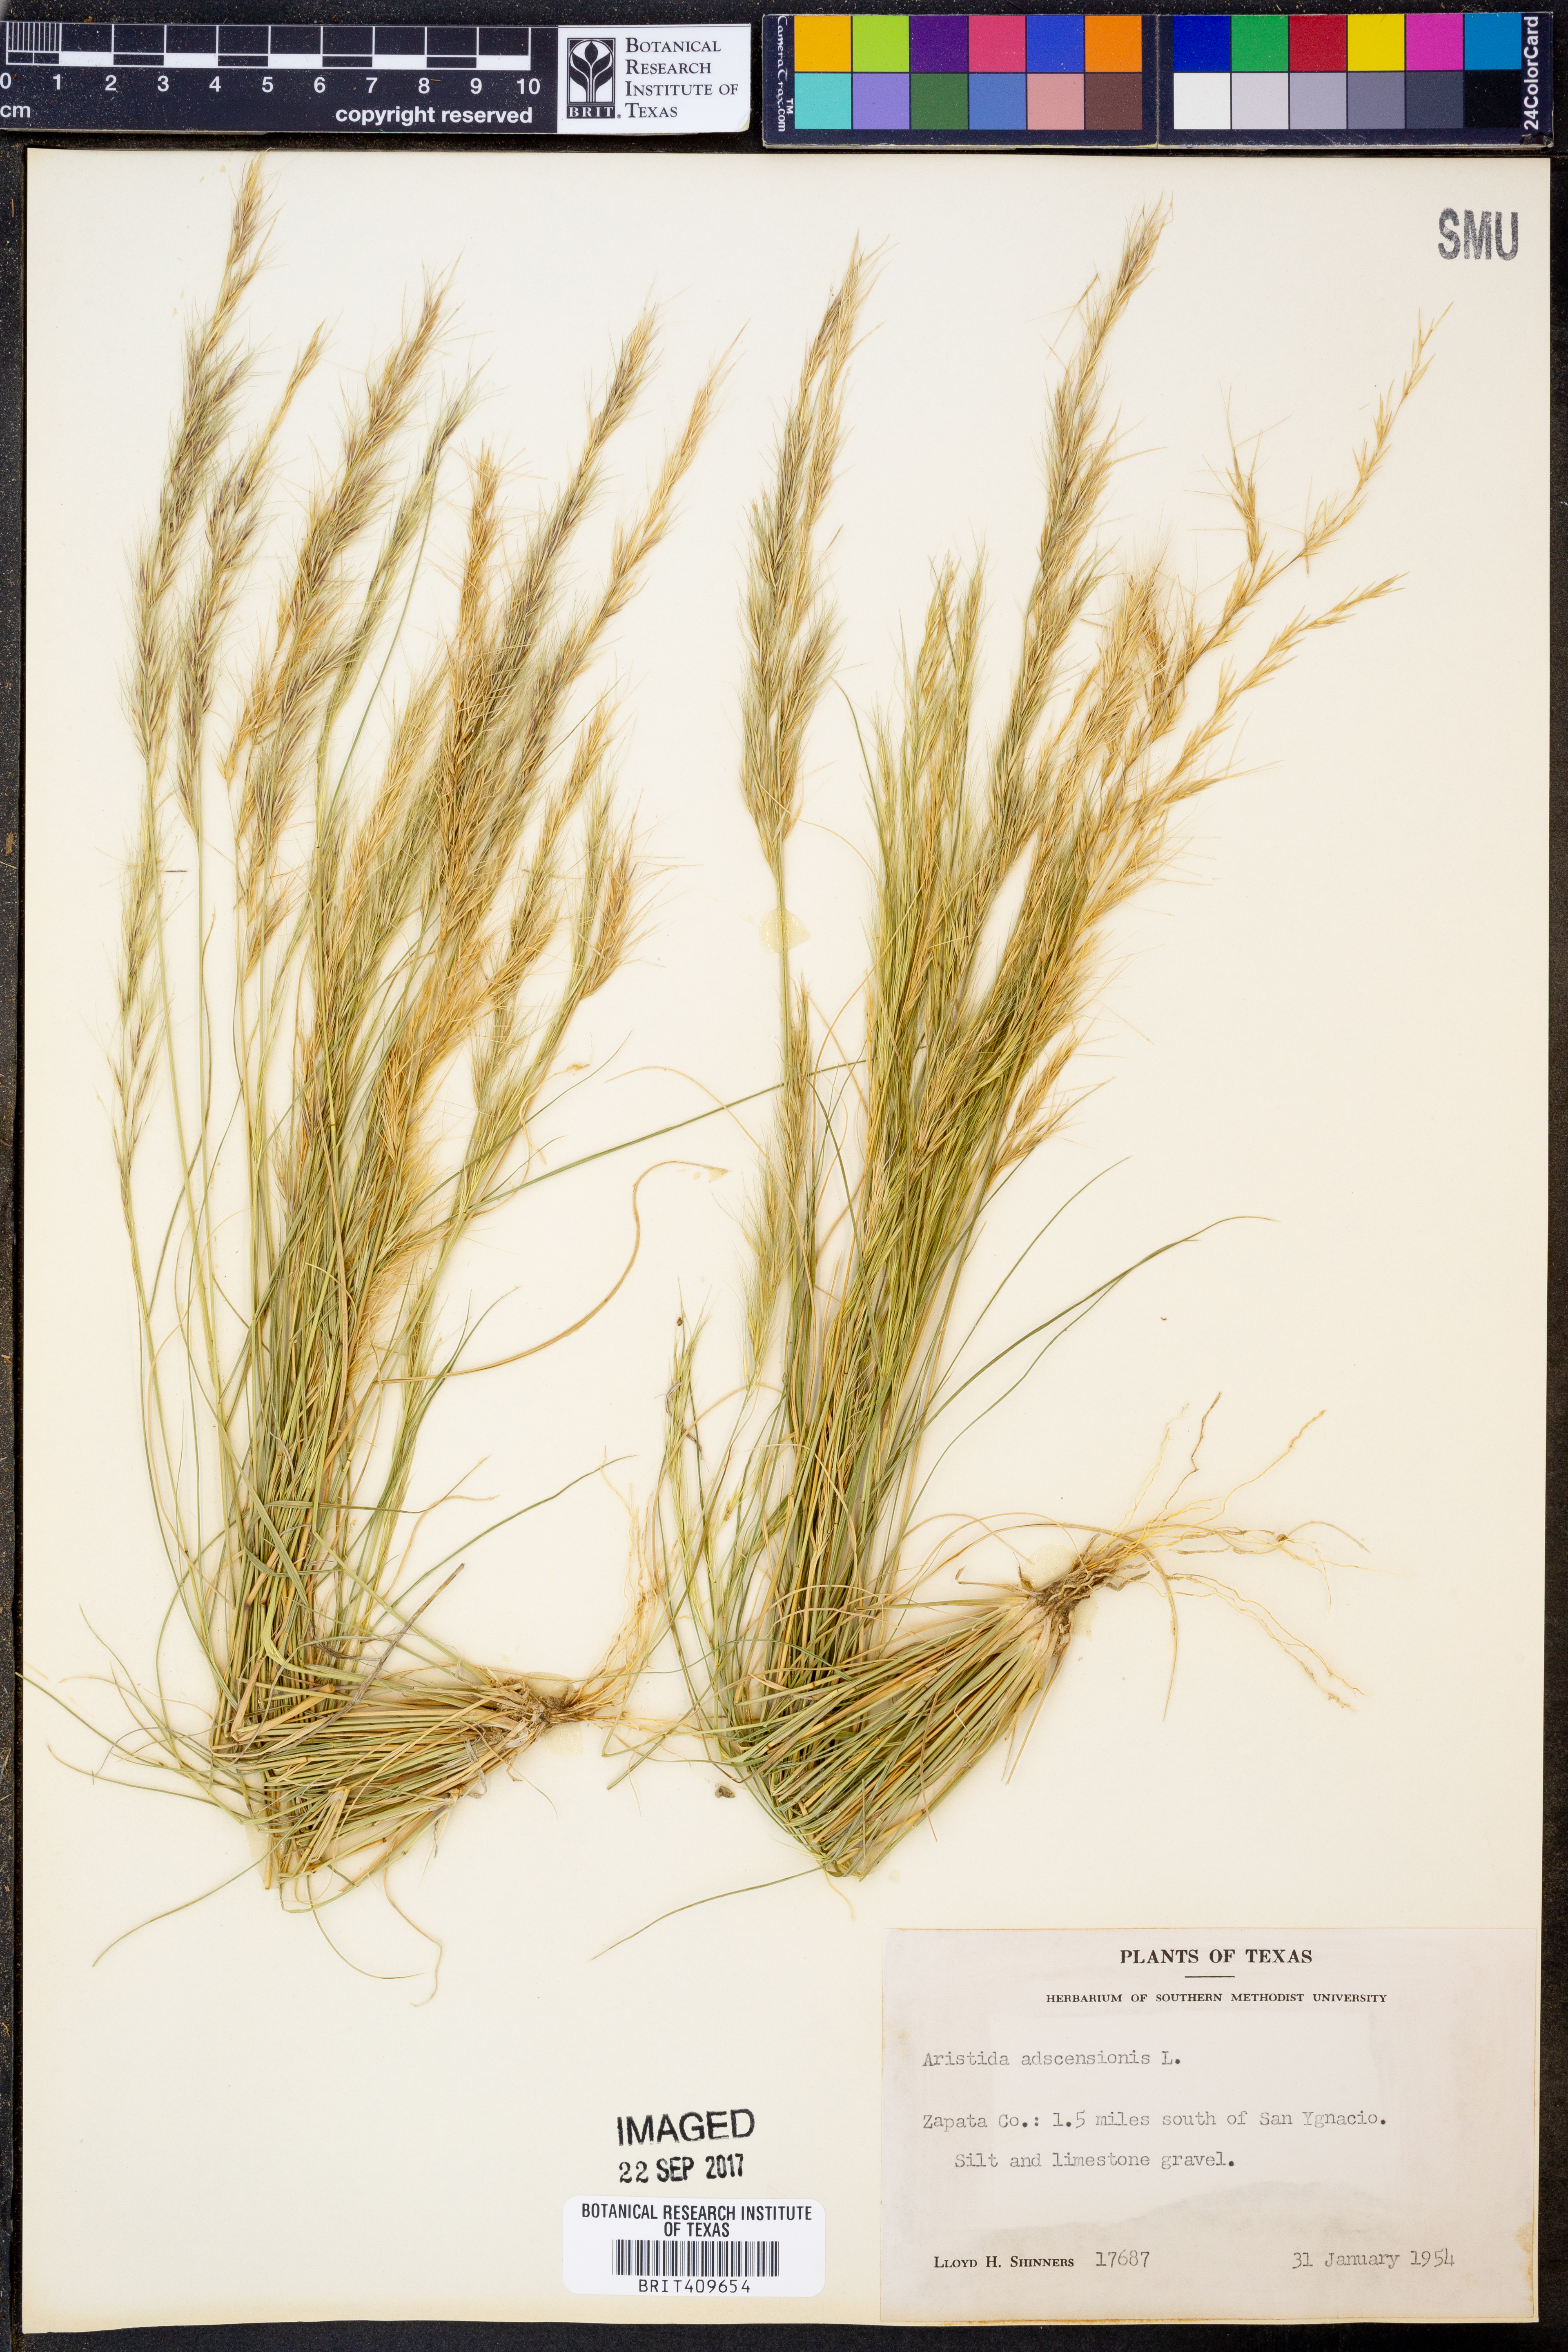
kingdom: Plantae
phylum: Tracheophyta
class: Liliopsida
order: Poales
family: Poaceae
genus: Aristida
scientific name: Aristida adscensionis
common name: Sixweeks threeawn
